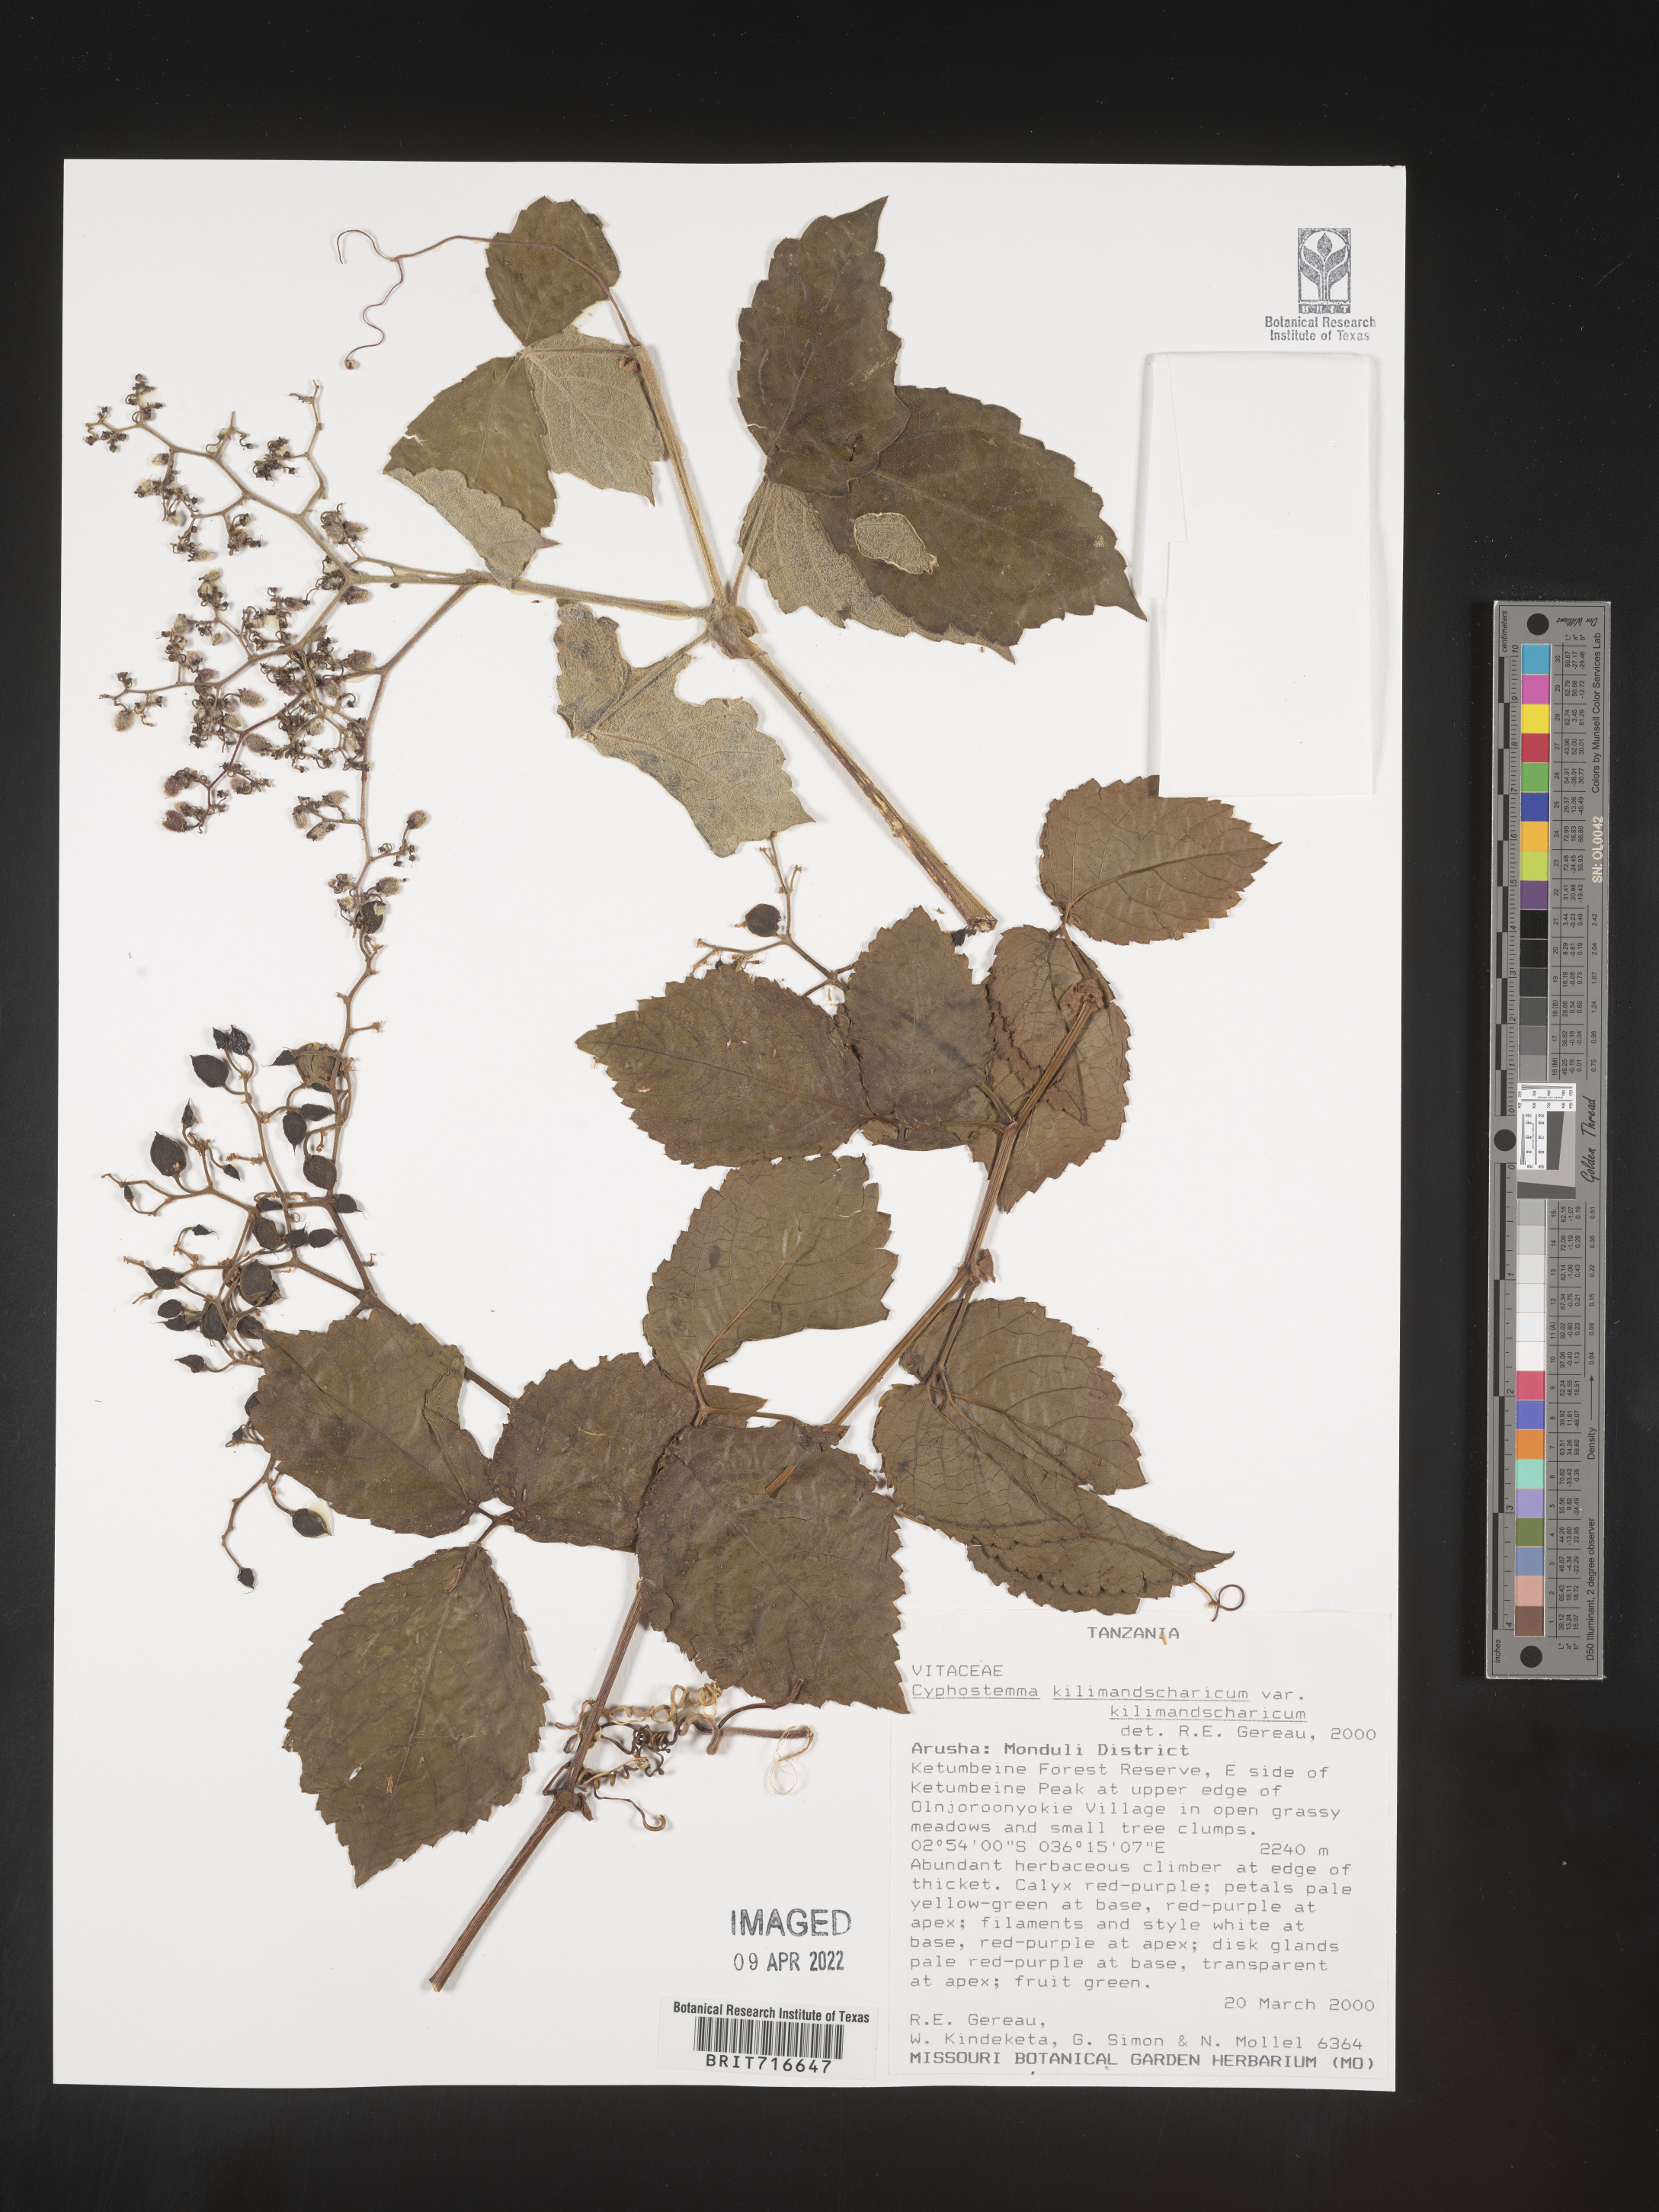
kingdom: Plantae
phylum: Tracheophyta
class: Magnoliopsida
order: Vitales
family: Vitaceae
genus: Cyphostemma
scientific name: Cyphostemma
